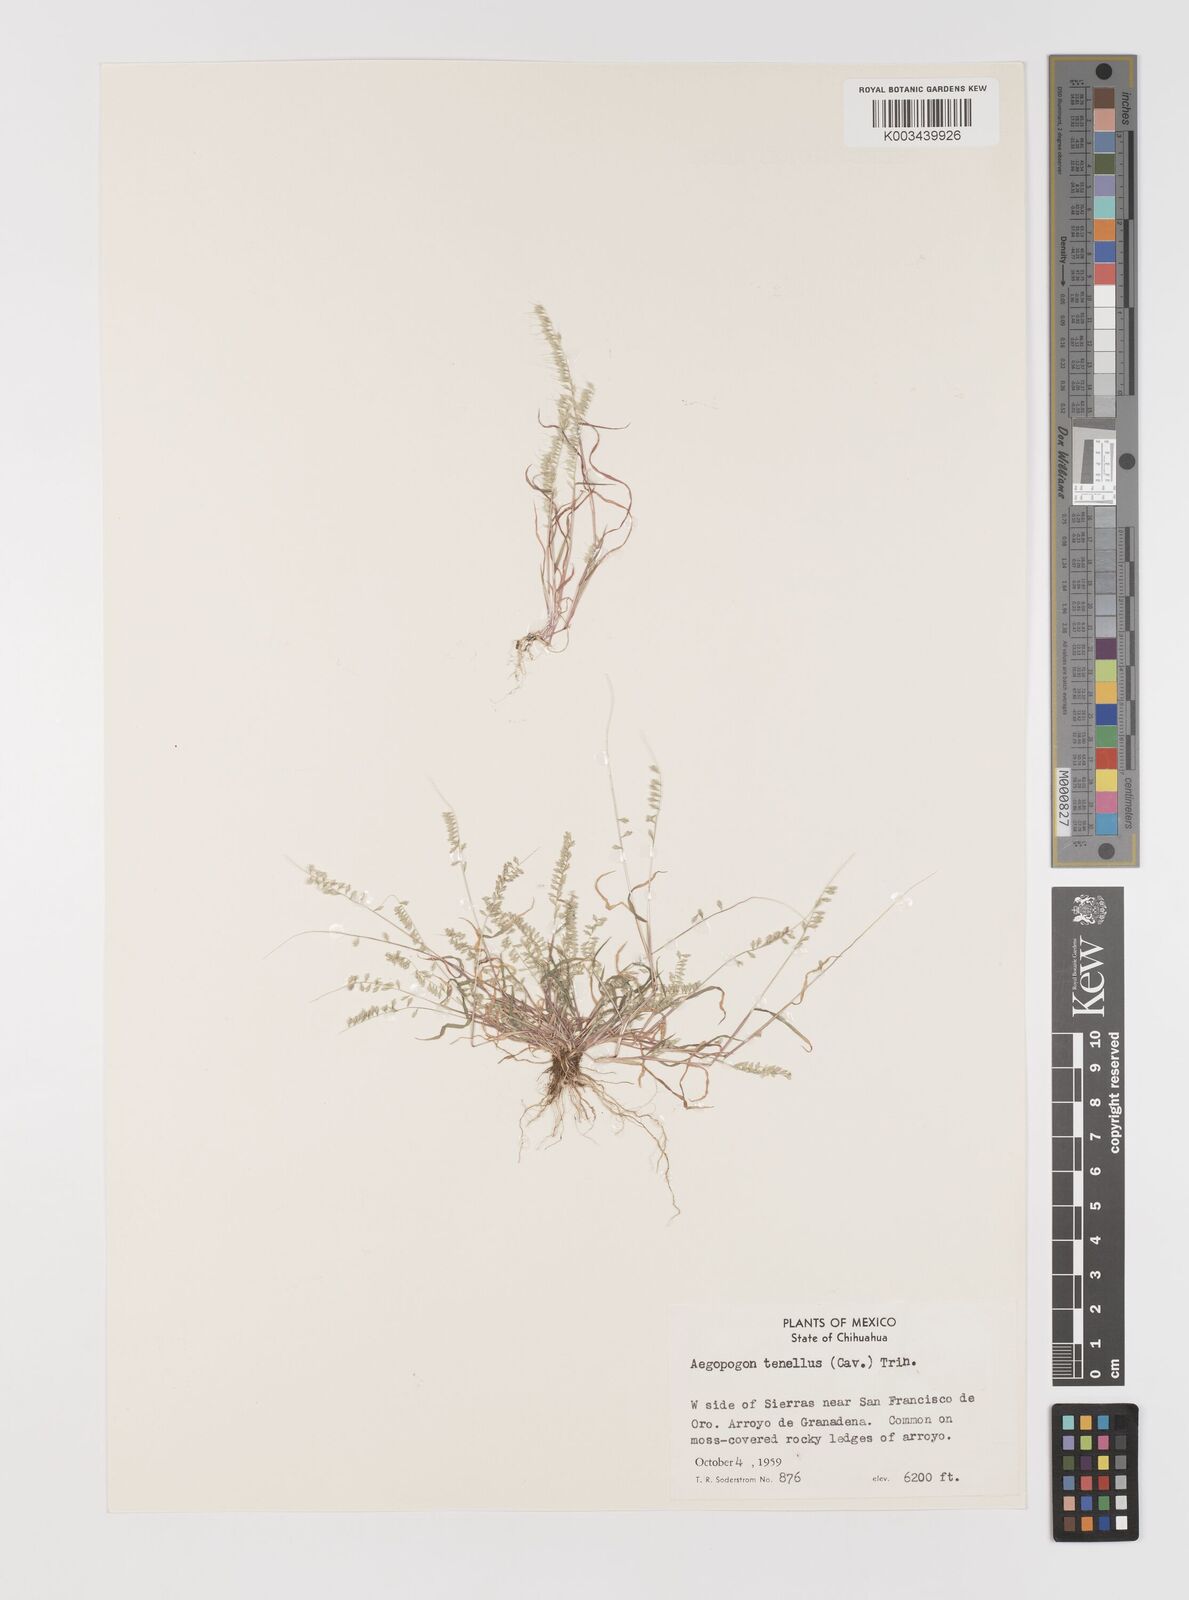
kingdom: Plantae
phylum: Tracheophyta
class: Liliopsida
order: Poales
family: Poaceae
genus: Muhlenbergia
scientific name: Muhlenbergia uniseta
